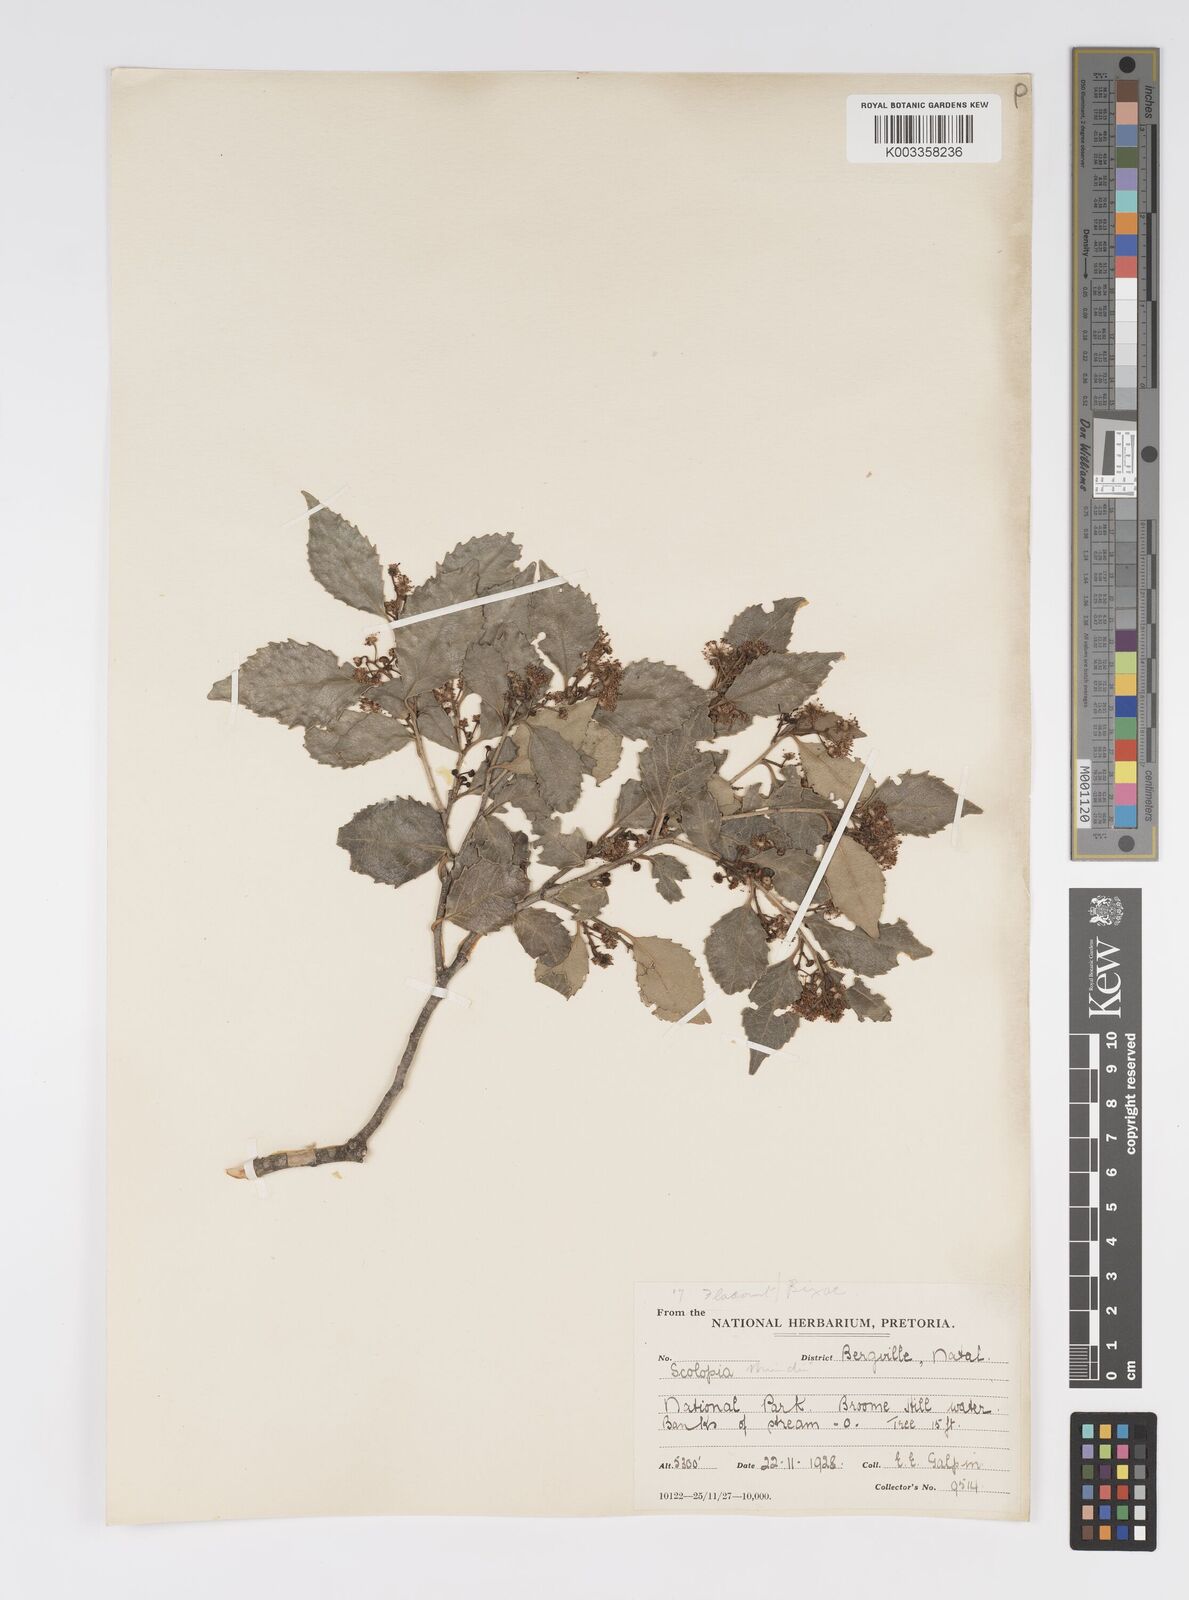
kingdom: Plantae
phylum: Tracheophyta
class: Magnoliopsida
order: Malpighiales
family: Salicaceae
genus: Scolopia
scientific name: Scolopia mundii
